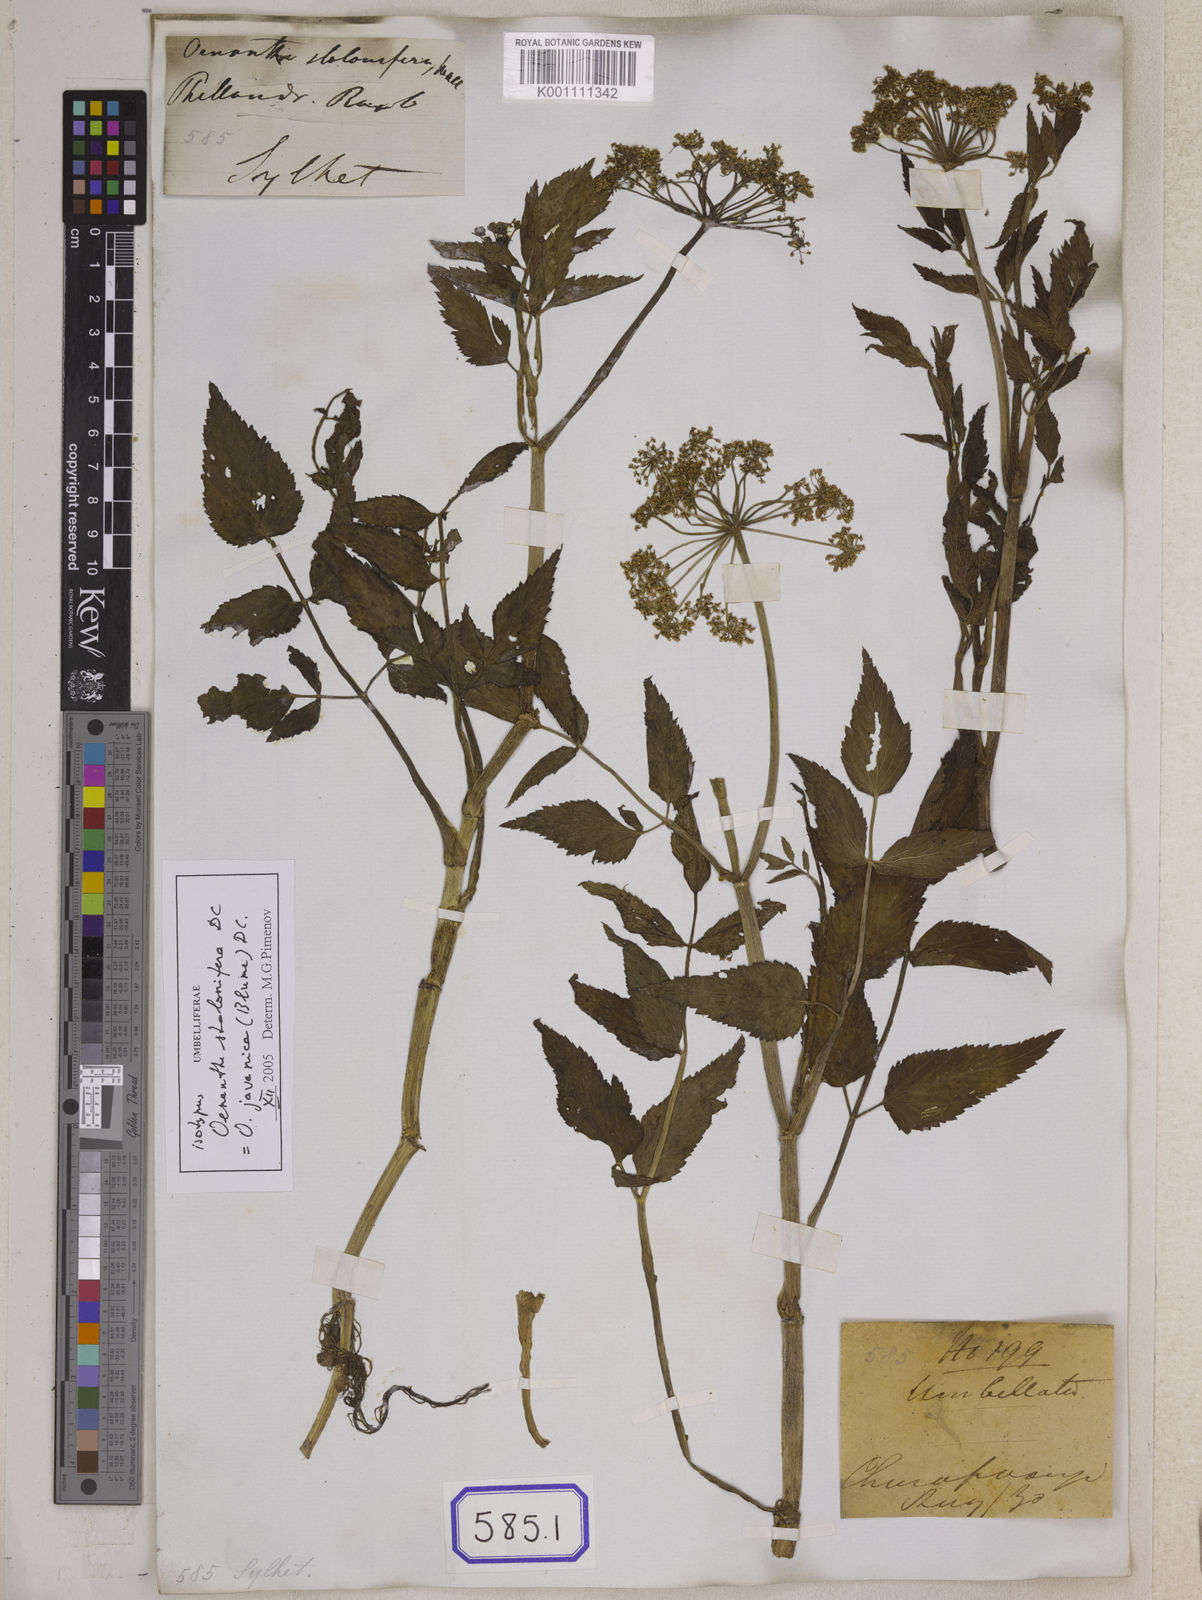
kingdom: Plantae
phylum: Tracheophyta
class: Magnoliopsida
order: Apiales
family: Apiaceae
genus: Oenanthe
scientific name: Oenanthe
